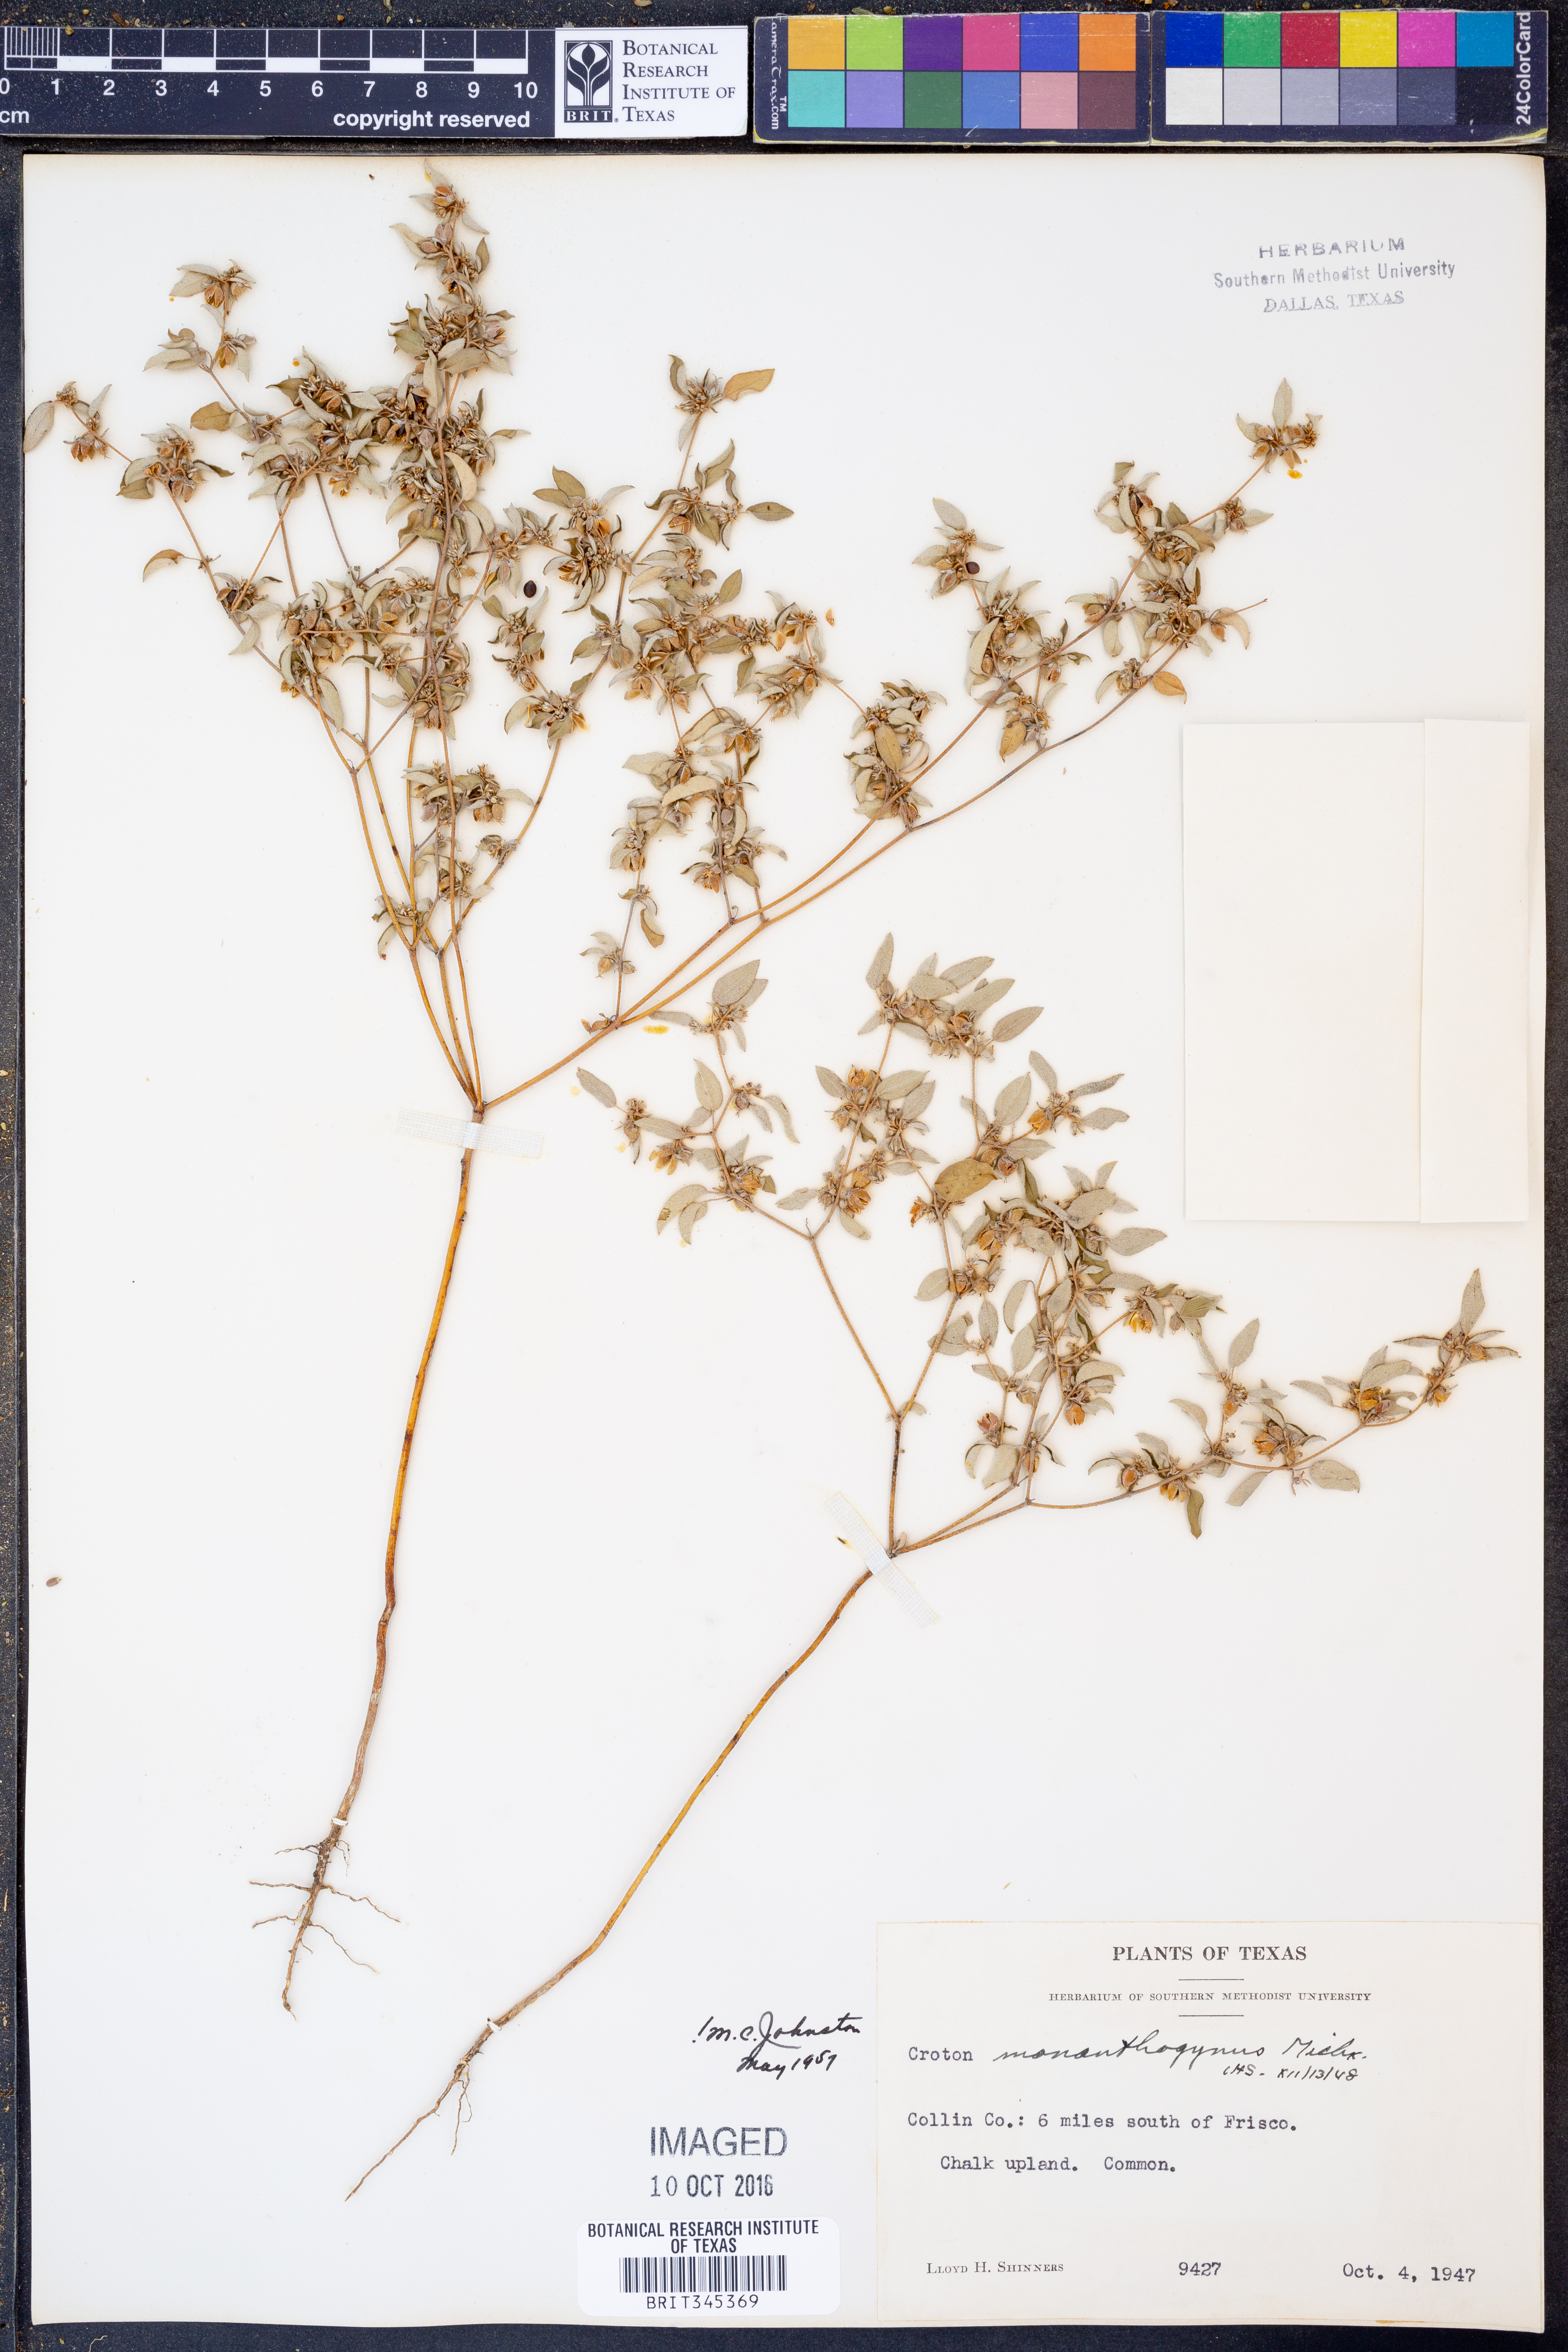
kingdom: Plantae
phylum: Tracheophyta
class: Magnoliopsida
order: Malpighiales
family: Euphorbiaceae
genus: Croton
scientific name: Croton monanthogynus
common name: One-seed croton
